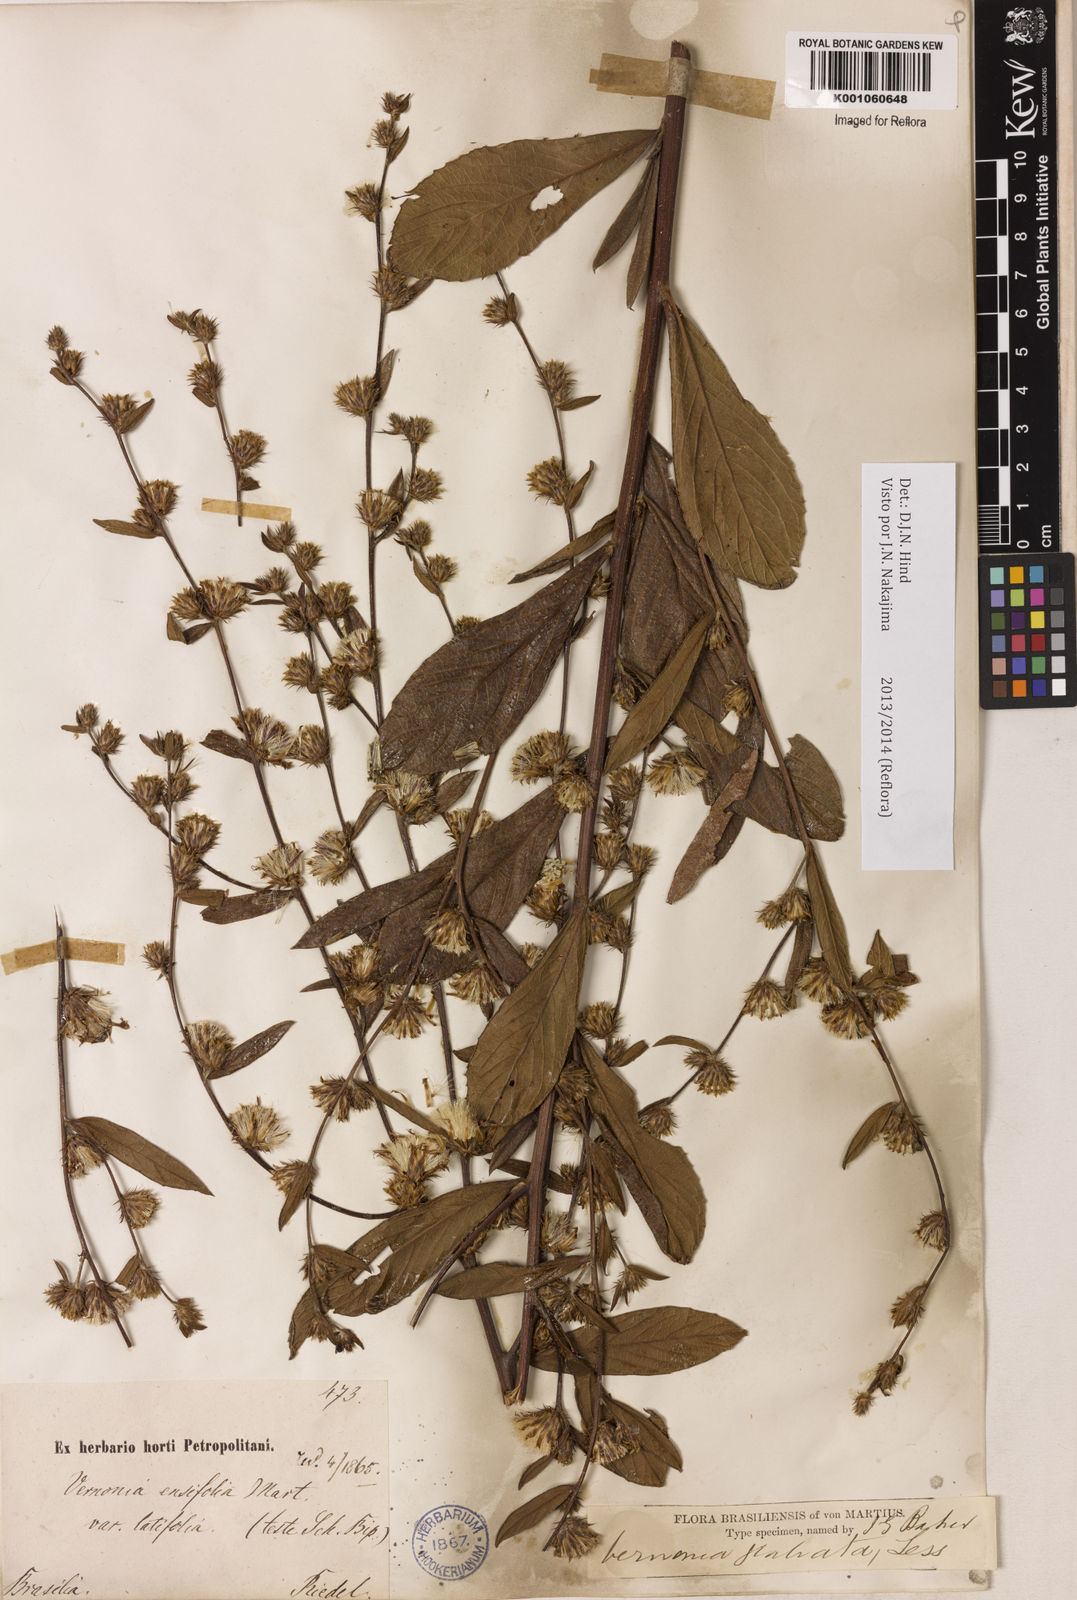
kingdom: Plantae
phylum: Tracheophyta
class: Magnoliopsida
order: Asterales
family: Asteraceae
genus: Lessingianthus
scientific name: Lessingianthus glabratus
